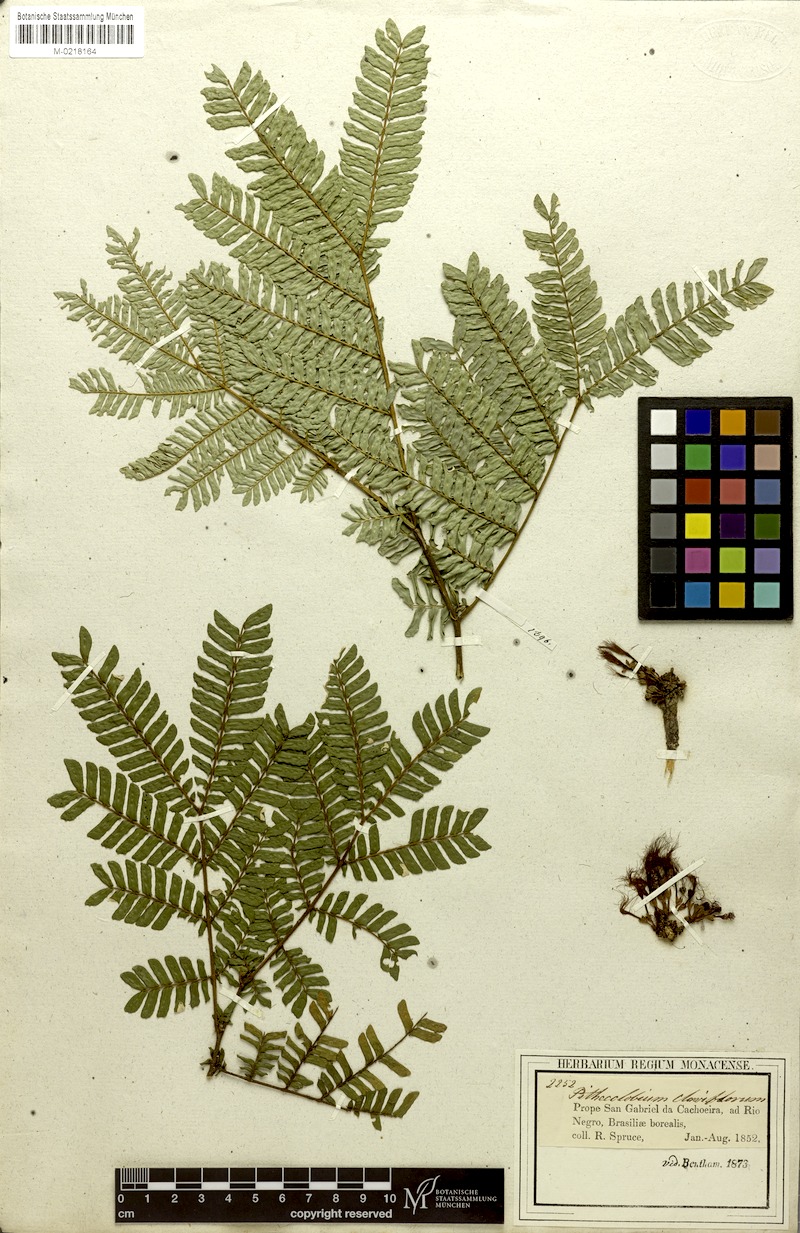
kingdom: Plantae
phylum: Tracheophyta
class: Magnoliopsida
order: Fabales
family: Fabaceae
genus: Zygia
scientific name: Zygia claviflora
